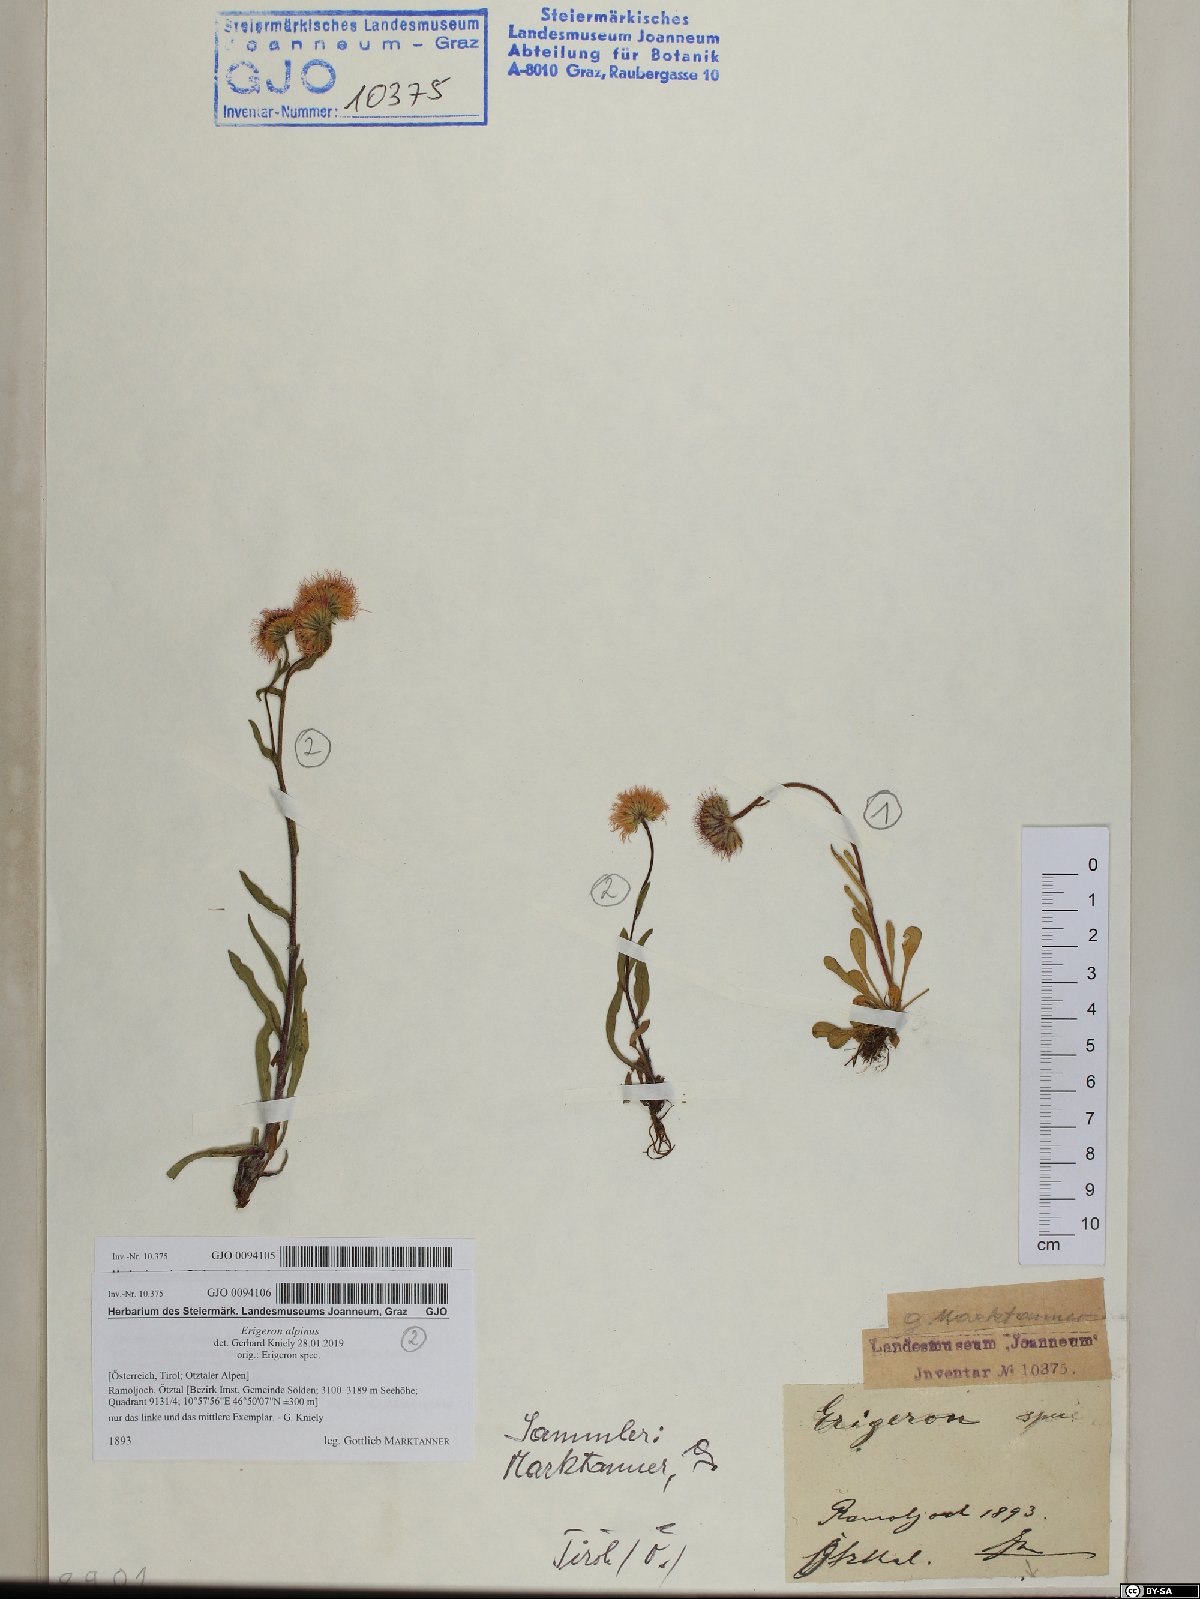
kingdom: Plantae
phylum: Tracheophyta
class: Magnoliopsida
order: Asterales
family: Asteraceae
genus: Erigeron
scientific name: Erigeron alpinus
